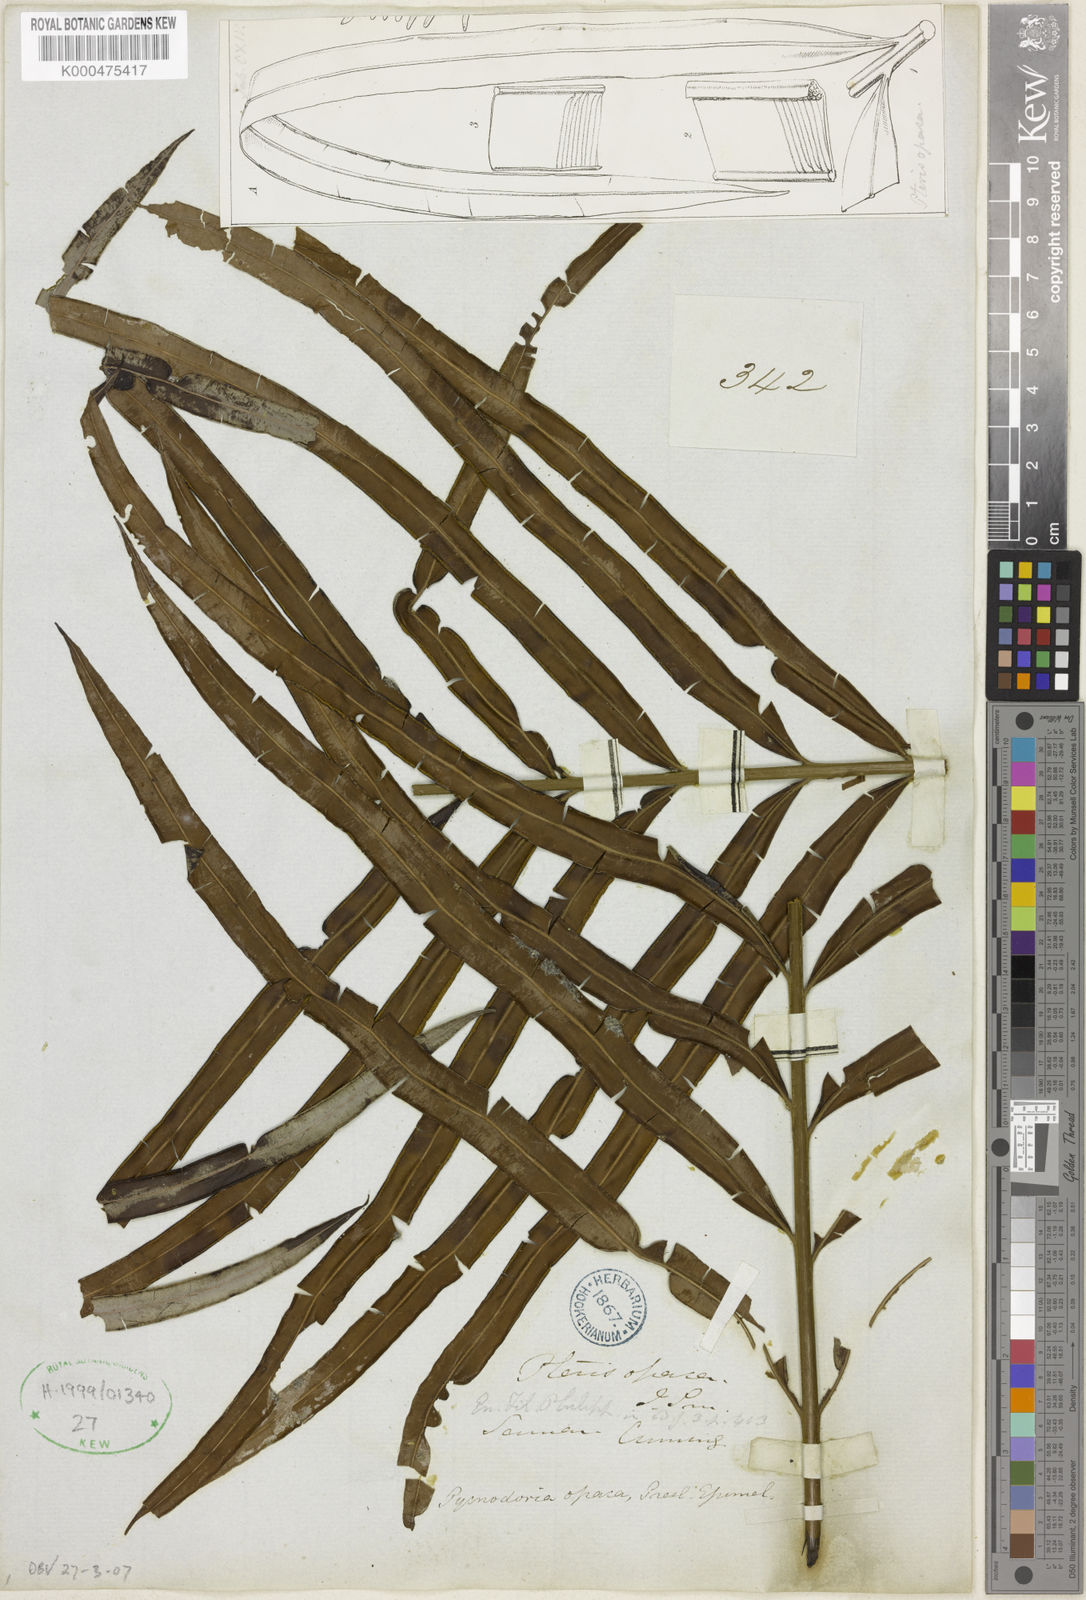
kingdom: Plantae
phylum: Tracheophyta
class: Polypodiopsida
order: Polypodiales
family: Pteridaceae
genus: Pteris
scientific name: Pteris
